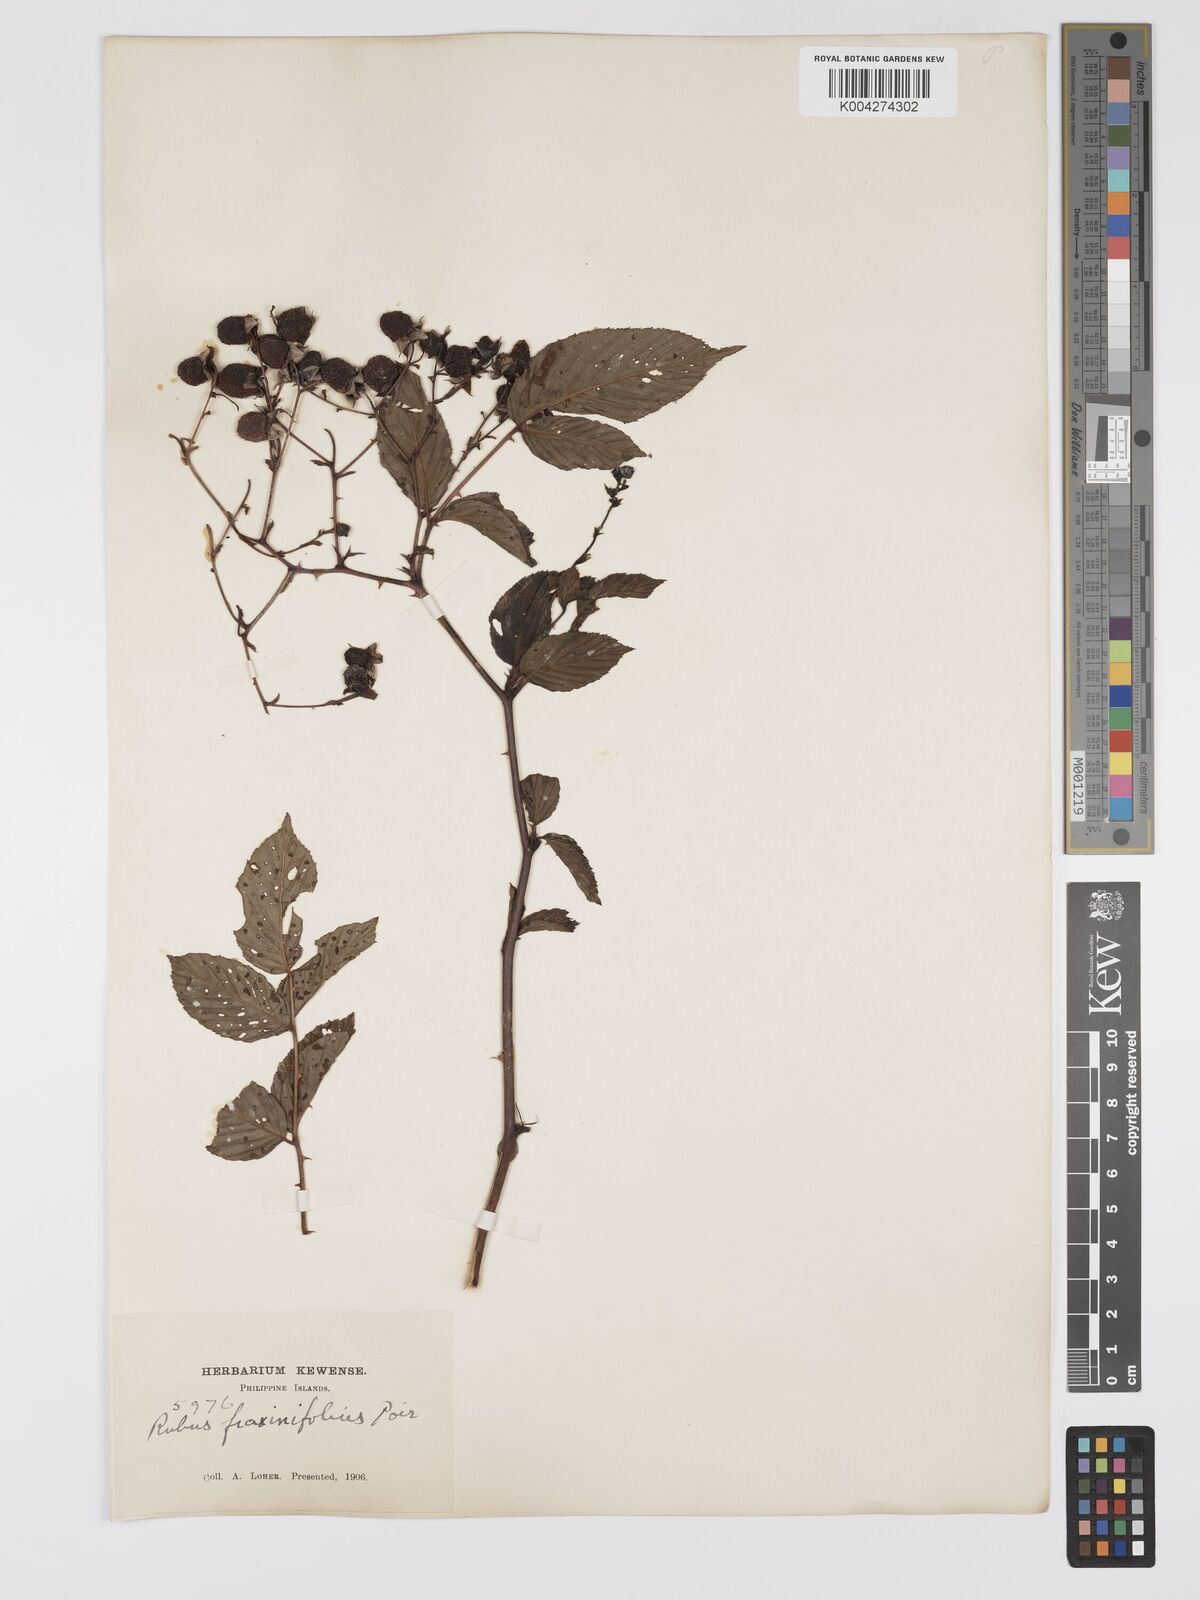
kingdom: Plantae
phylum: Tracheophyta
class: Magnoliopsida
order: Rosales
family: Rosaceae
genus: Rubus
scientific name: Rubus fraxinifolius
